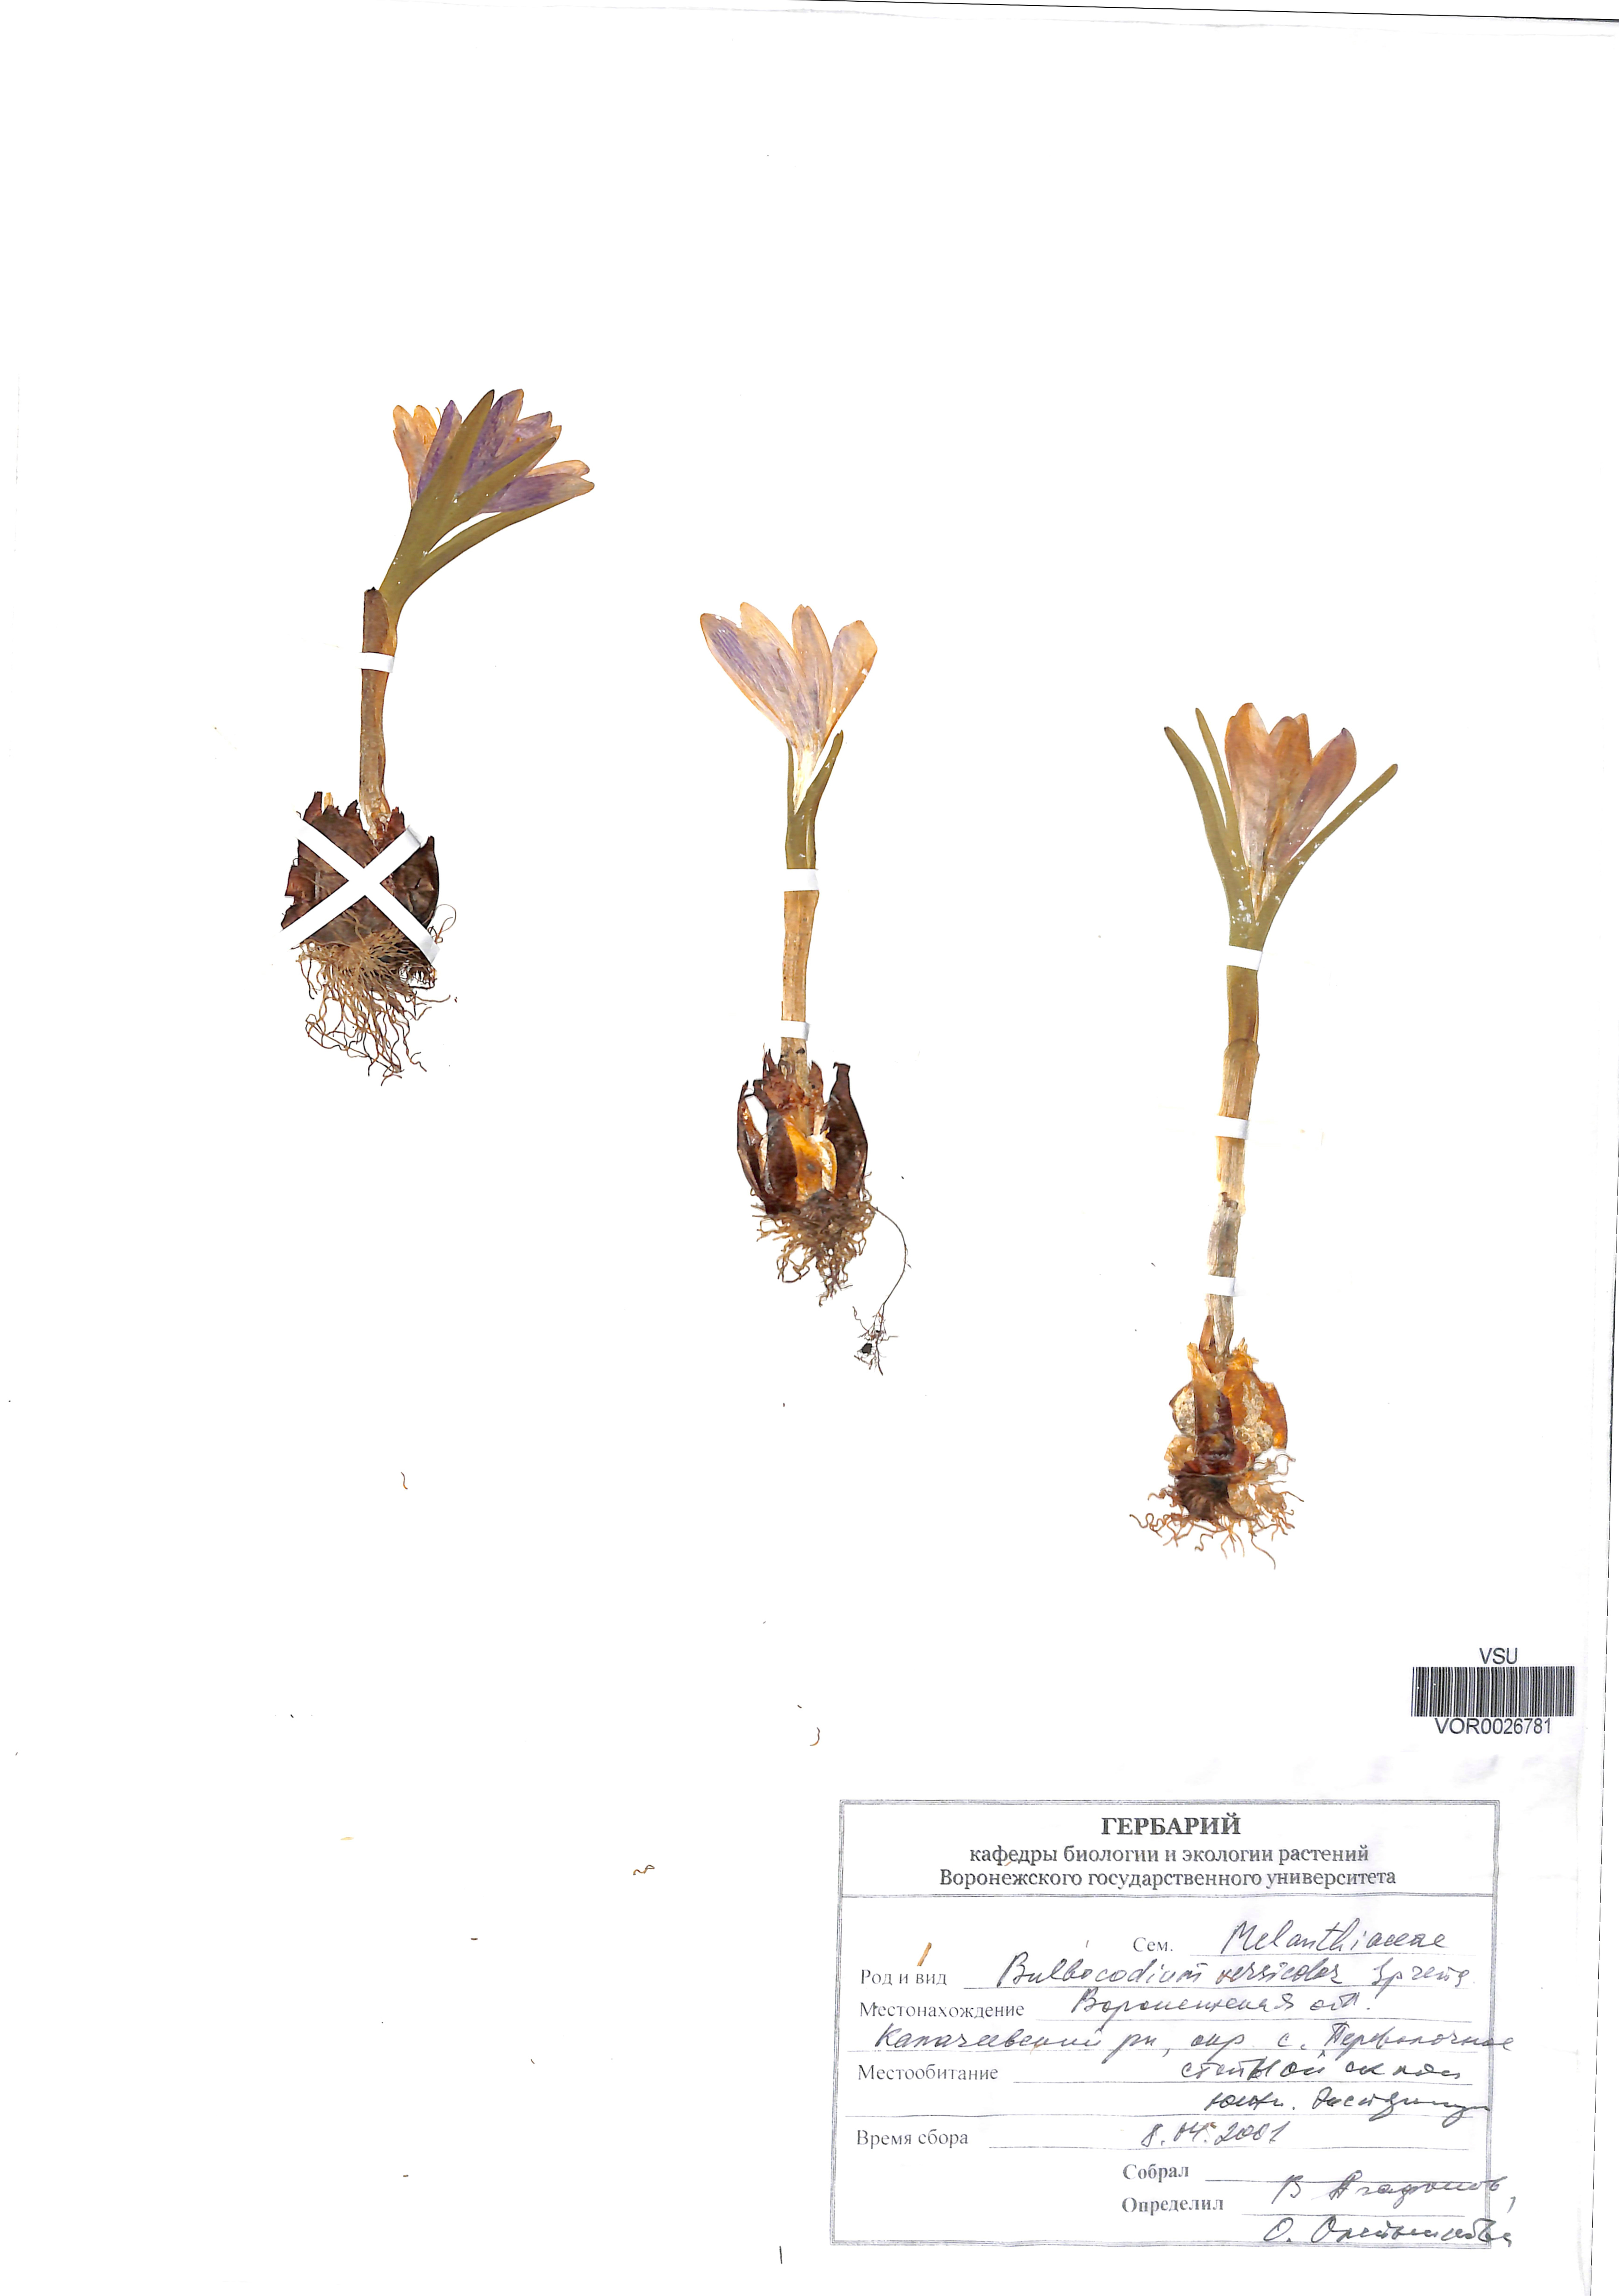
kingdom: Plantae
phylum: Tracheophyta
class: Liliopsida
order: Liliales
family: Colchicaceae
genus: Colchicum
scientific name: Colchicum bulbocodium
